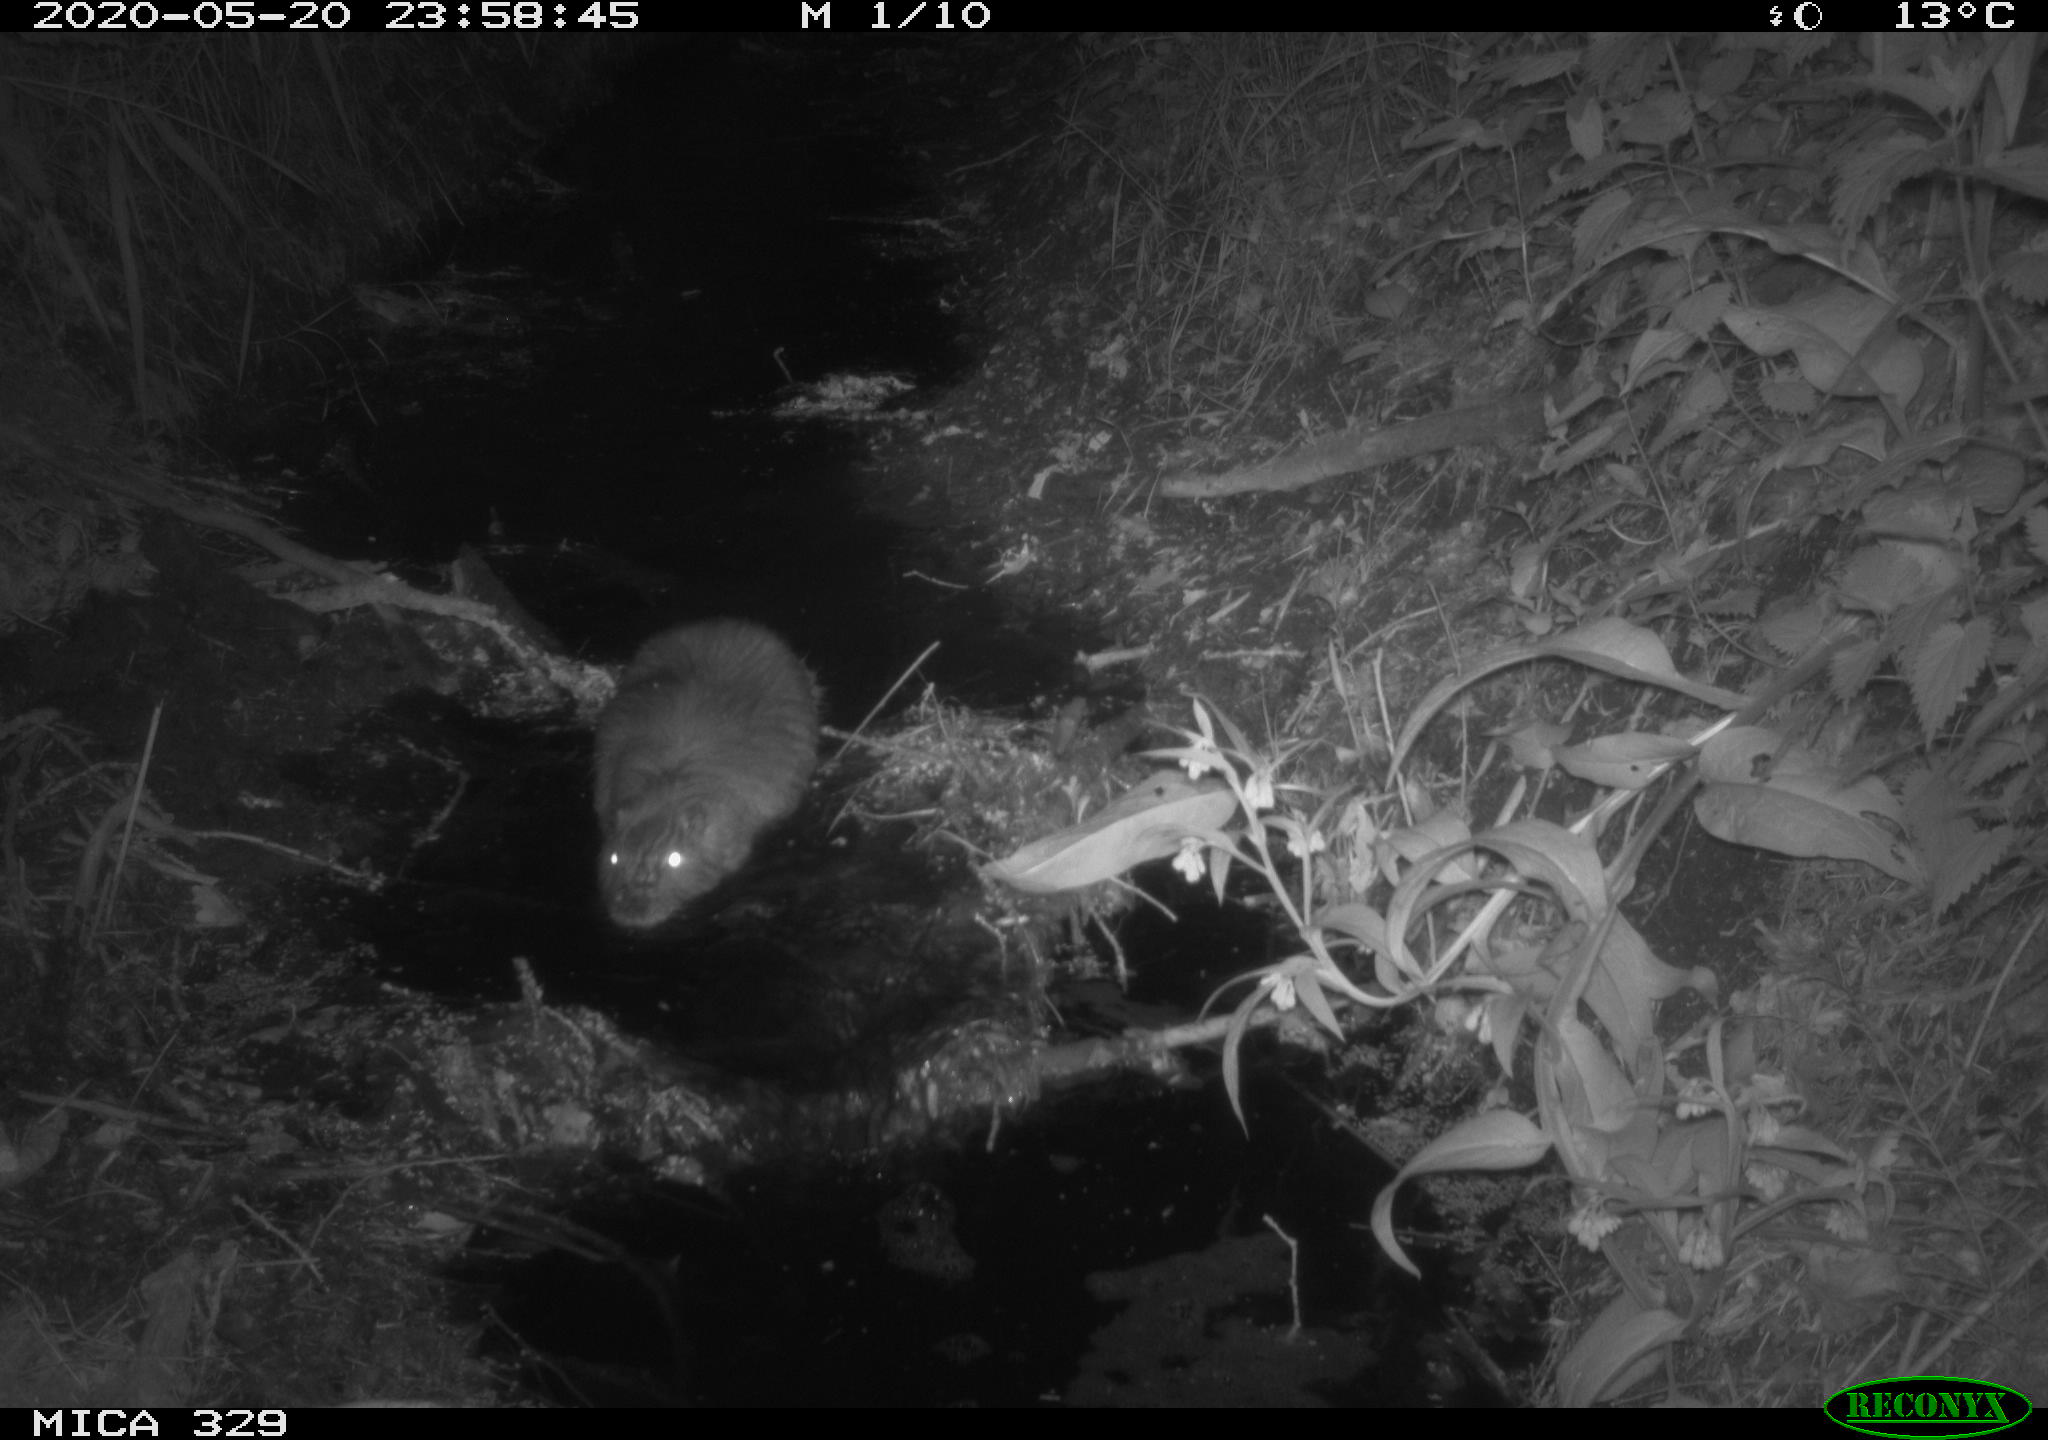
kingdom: Animalia
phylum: Chordata
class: Mammalia
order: Rodentia
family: Myocastoridae
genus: Myocastor
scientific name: Myocastor coypus
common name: Coypu
